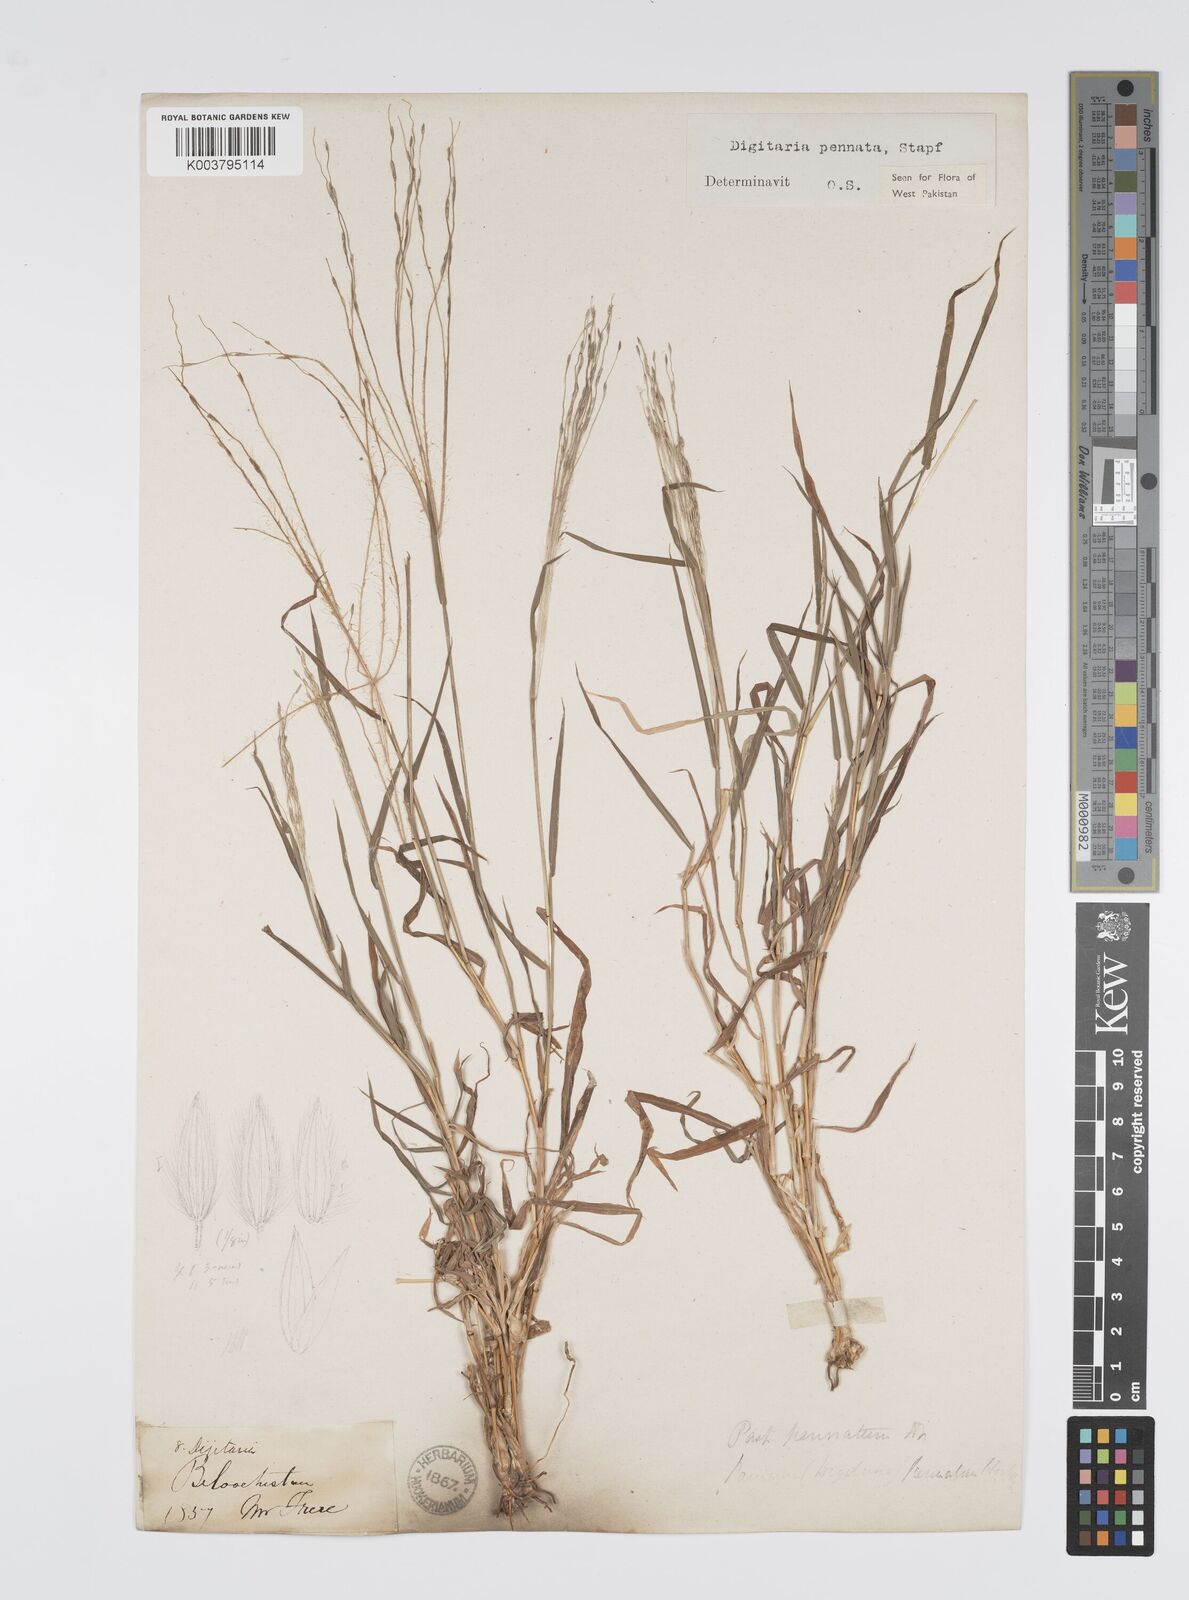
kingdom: Plantae
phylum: Tracheophyta
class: Liliopsida
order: Poales
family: Poaceae
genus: Digitaria
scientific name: Digitaria pennata
